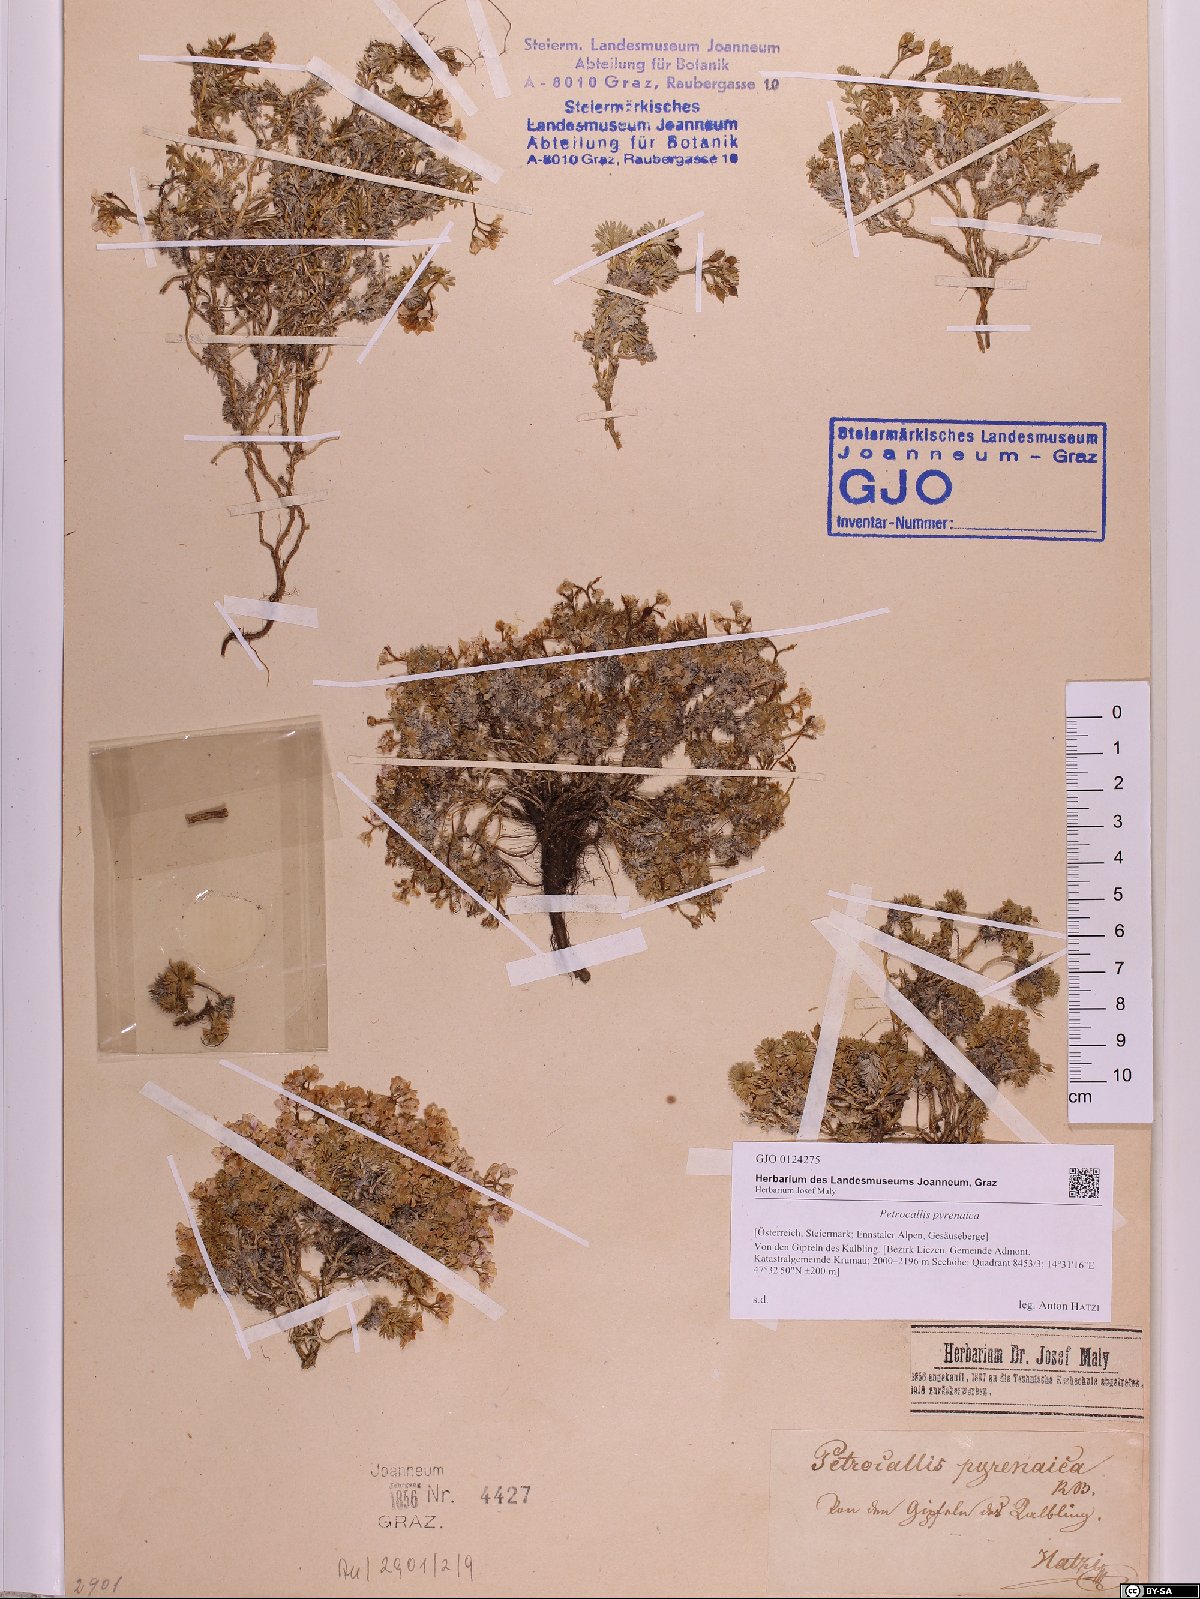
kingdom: Plantae
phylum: Tracheophyta
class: Magnoliopsida
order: Brassicales
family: Brassicaceae
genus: Petrocallis
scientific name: Petrocallis pyrenaica
